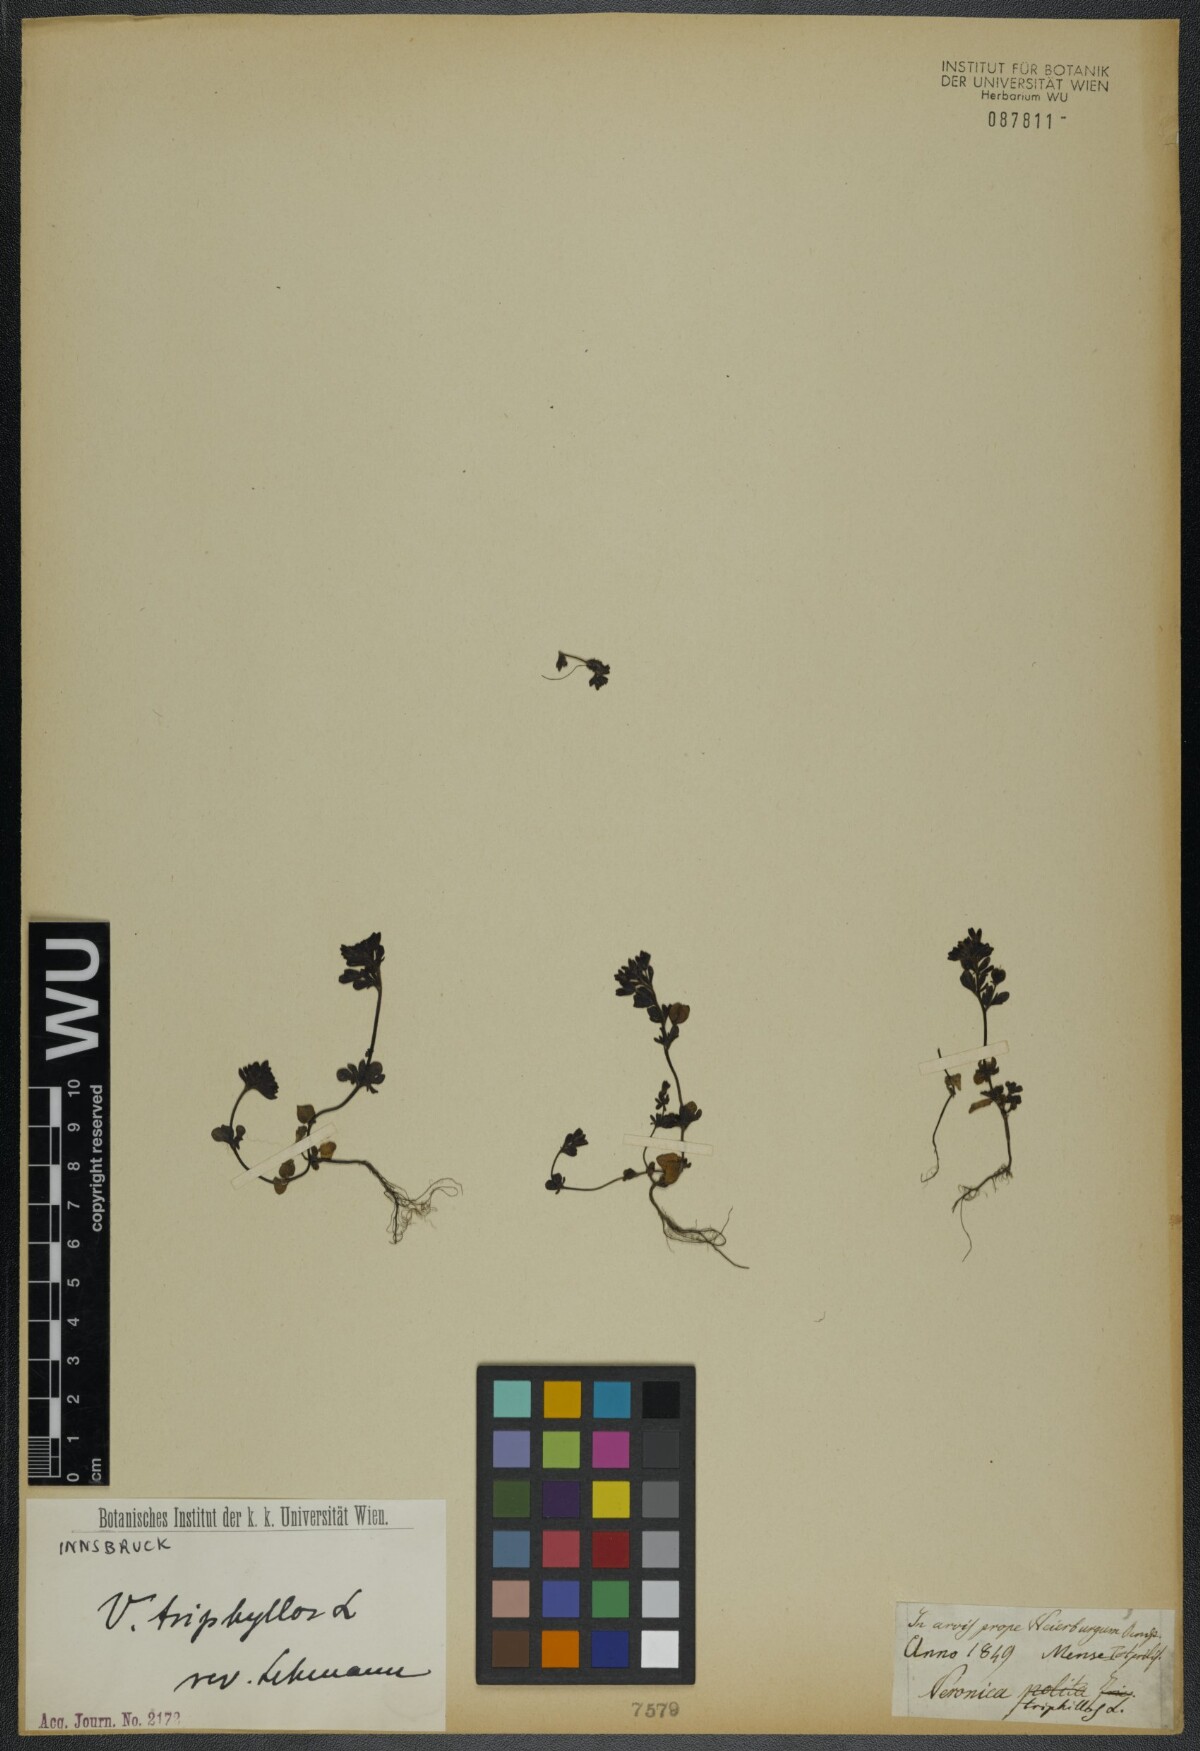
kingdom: Plantae
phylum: Tracheophyta
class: Magnoliopsida
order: Lamiales
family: Plantaginaceae
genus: Veronica
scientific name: Veronica triphyllos
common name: Fingered speedwell
